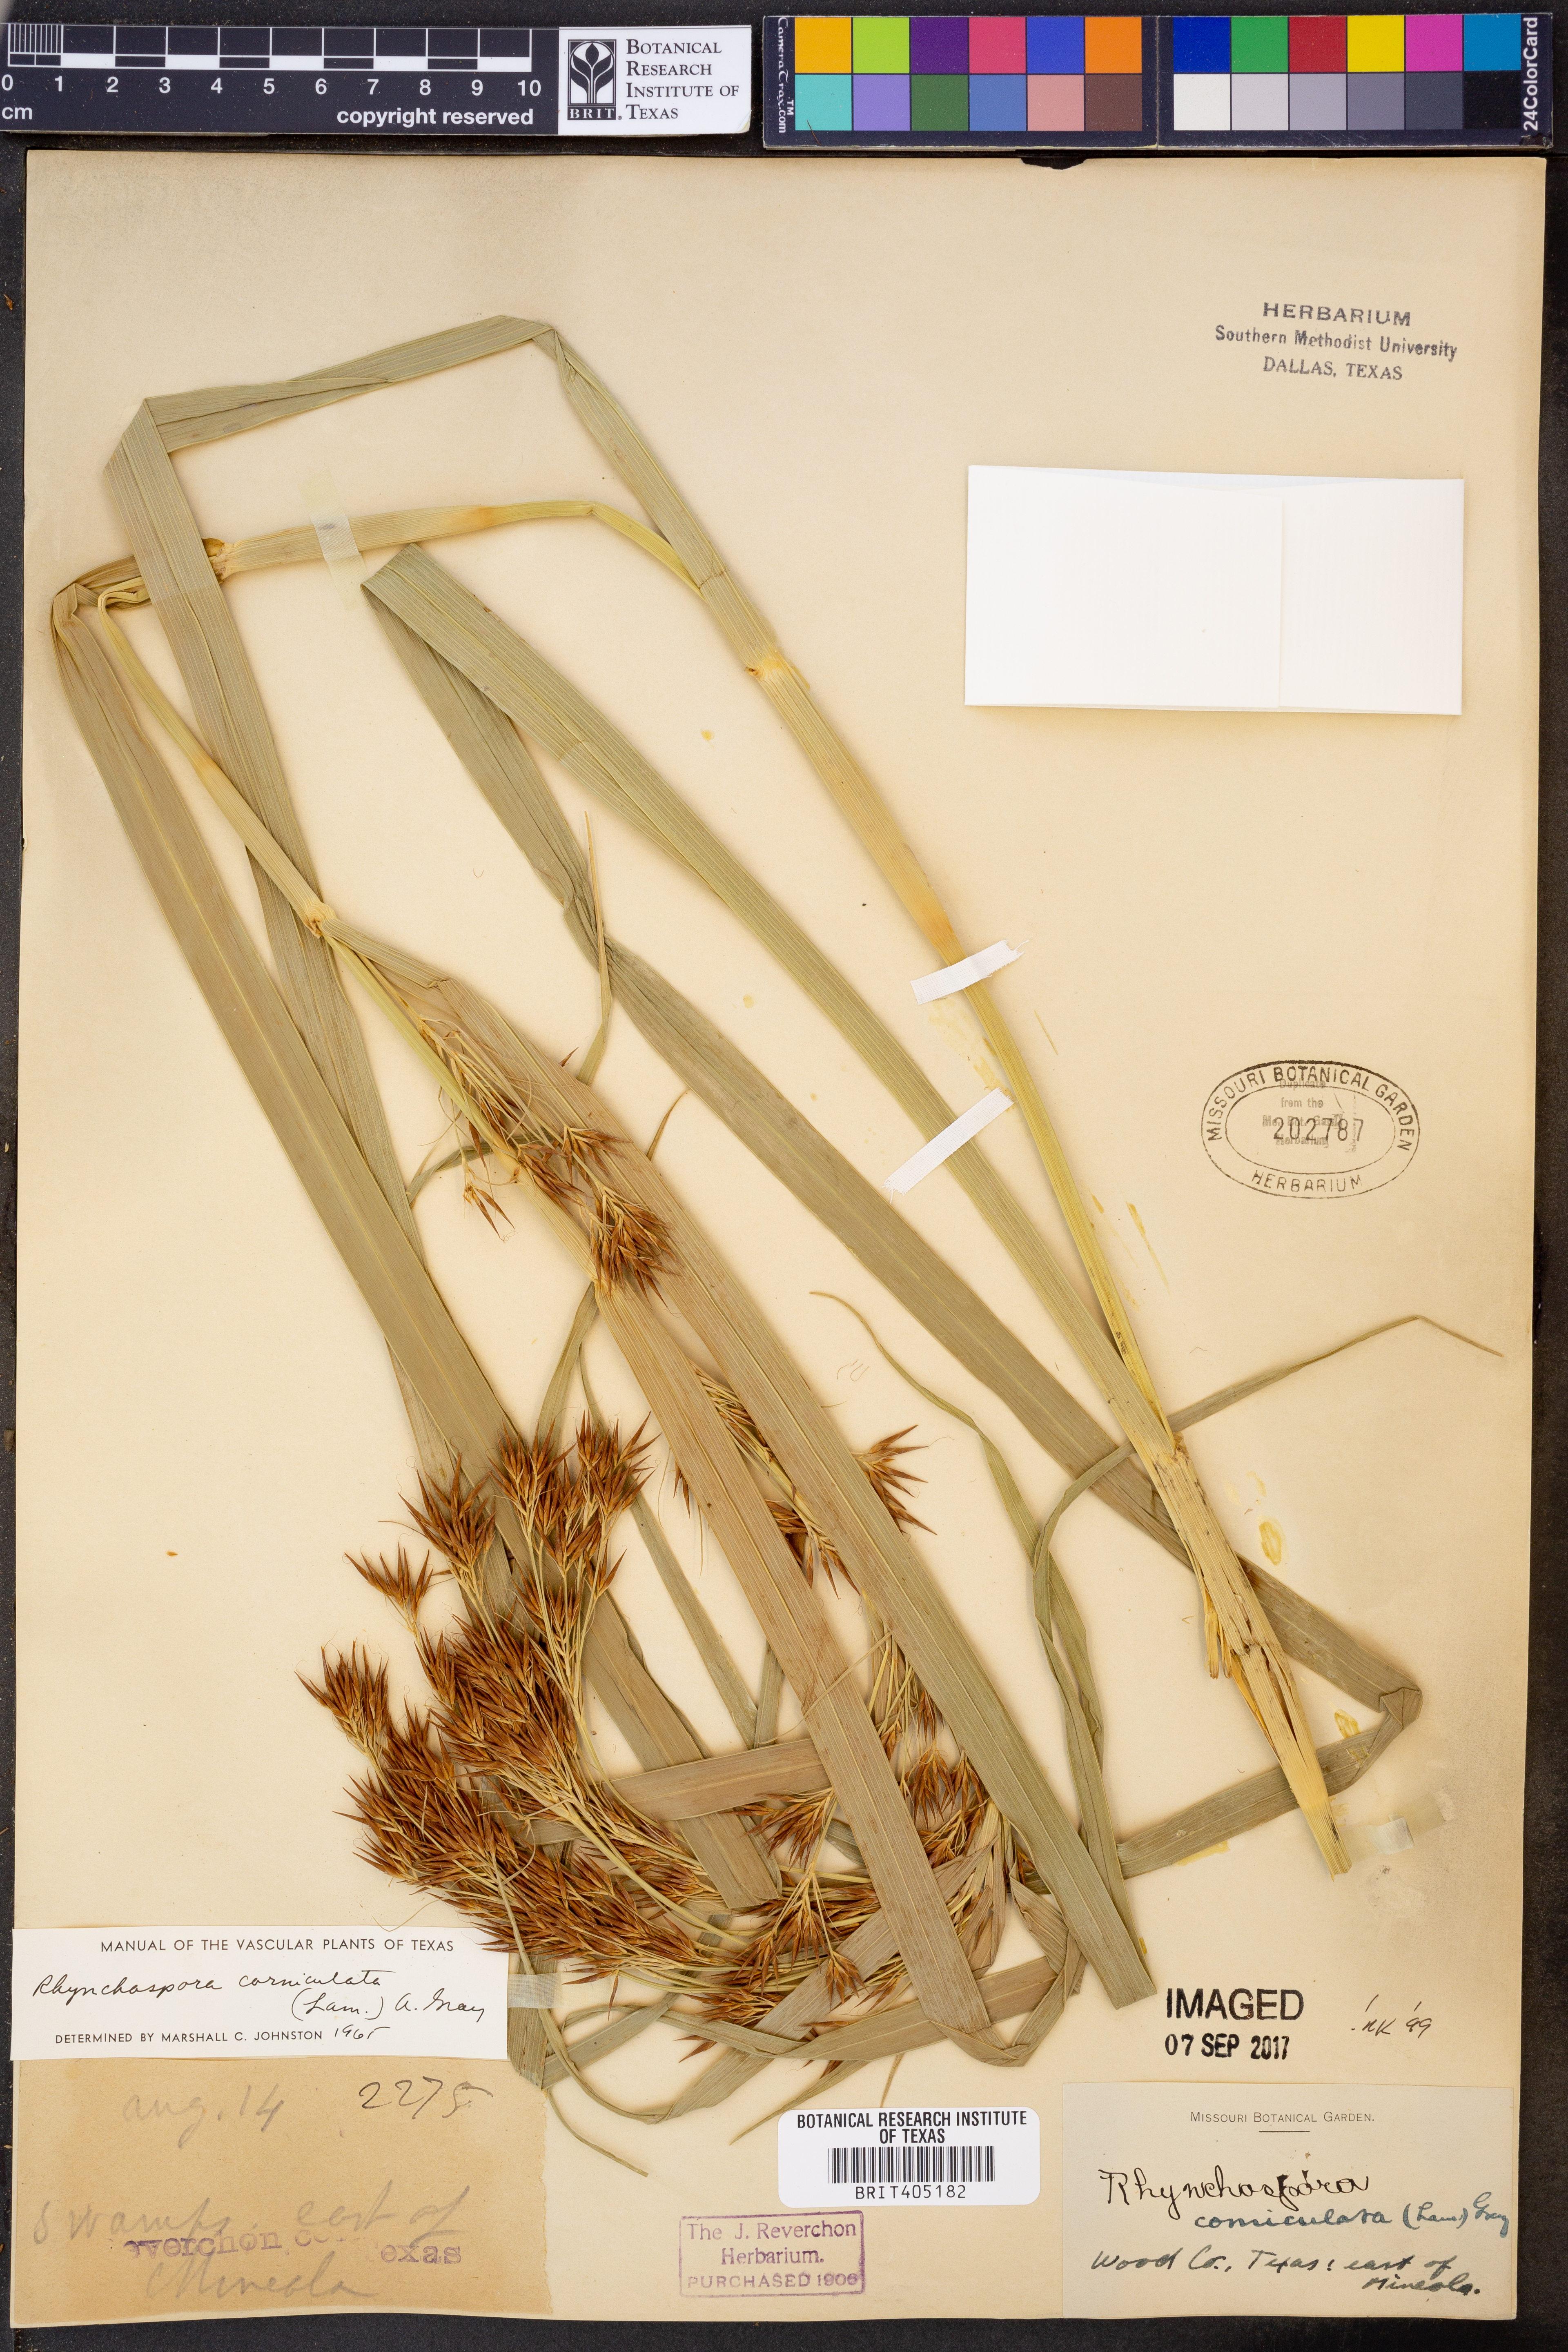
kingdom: Plantae
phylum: Tracheophyta
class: Liliopsida
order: Poales
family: Cyperaceae
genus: Rhynchospora
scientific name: Rhynchospora corniculata
